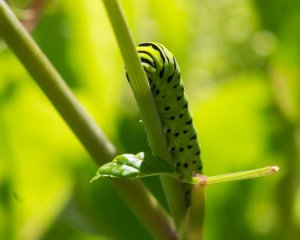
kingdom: Animalia
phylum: Arthropoda
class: Insecta
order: Lepidoptera
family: Papilionidae
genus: Papilio
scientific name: Papilio polyxenes
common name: Black Swallowtail
